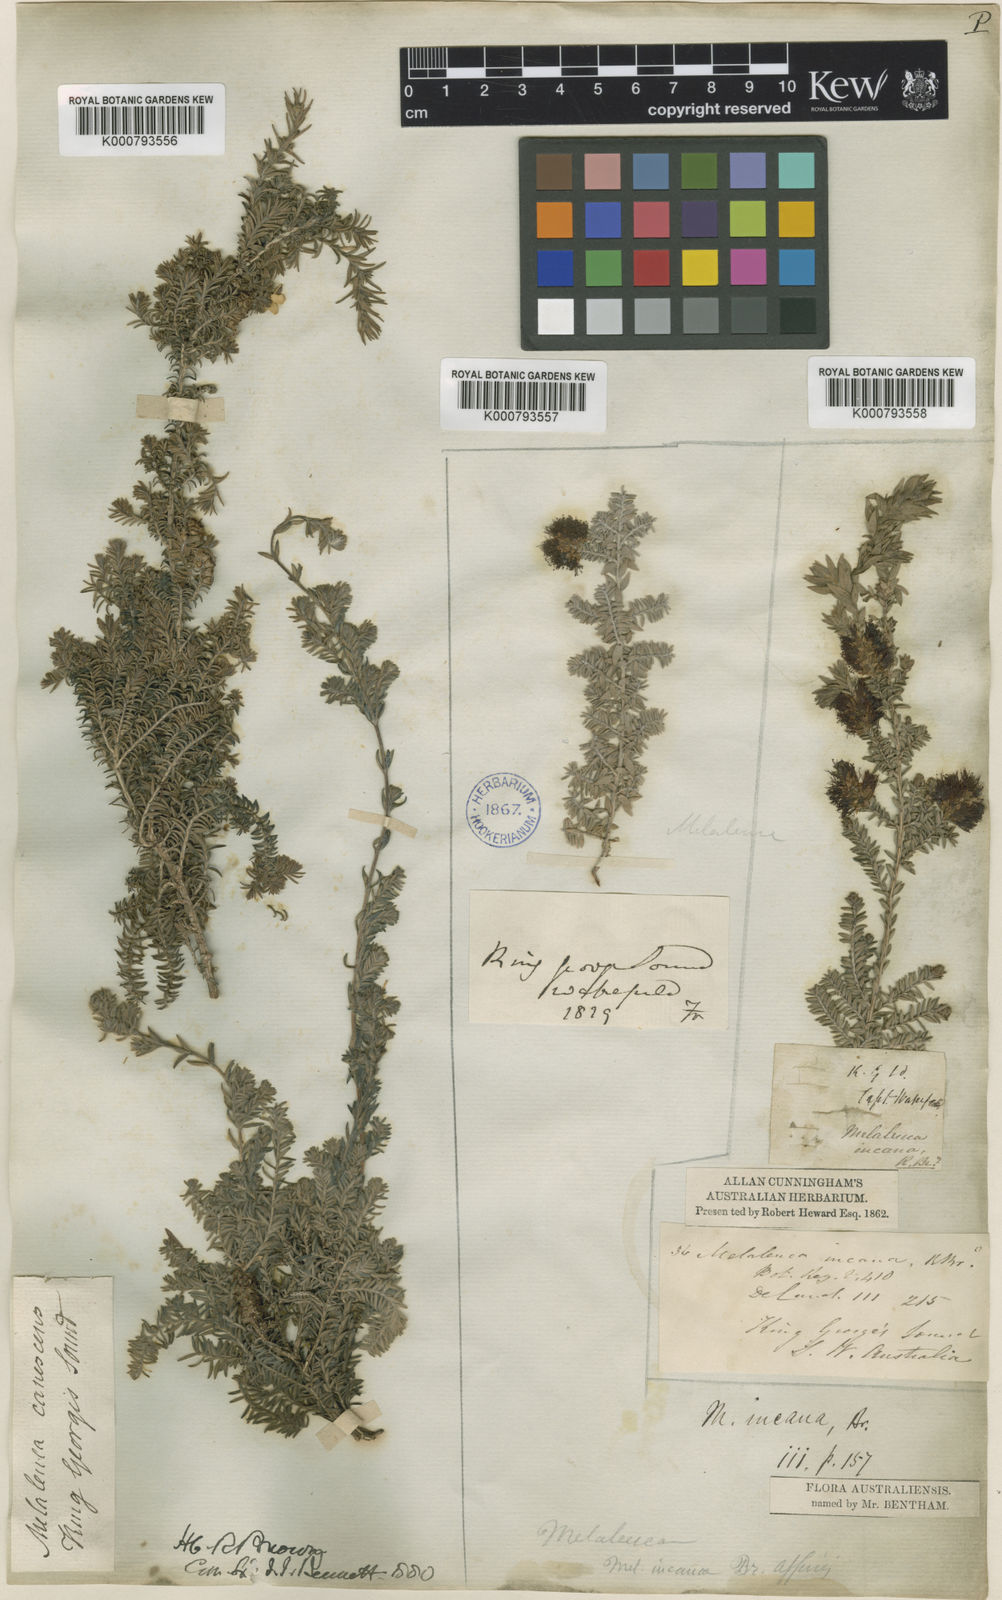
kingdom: Plantae
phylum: Tracheophyta
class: Magnoliopsida
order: Myrtales
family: Myrtaceae
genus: Melaleuca
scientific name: Melaleuca incana
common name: Grey honey myrtle
